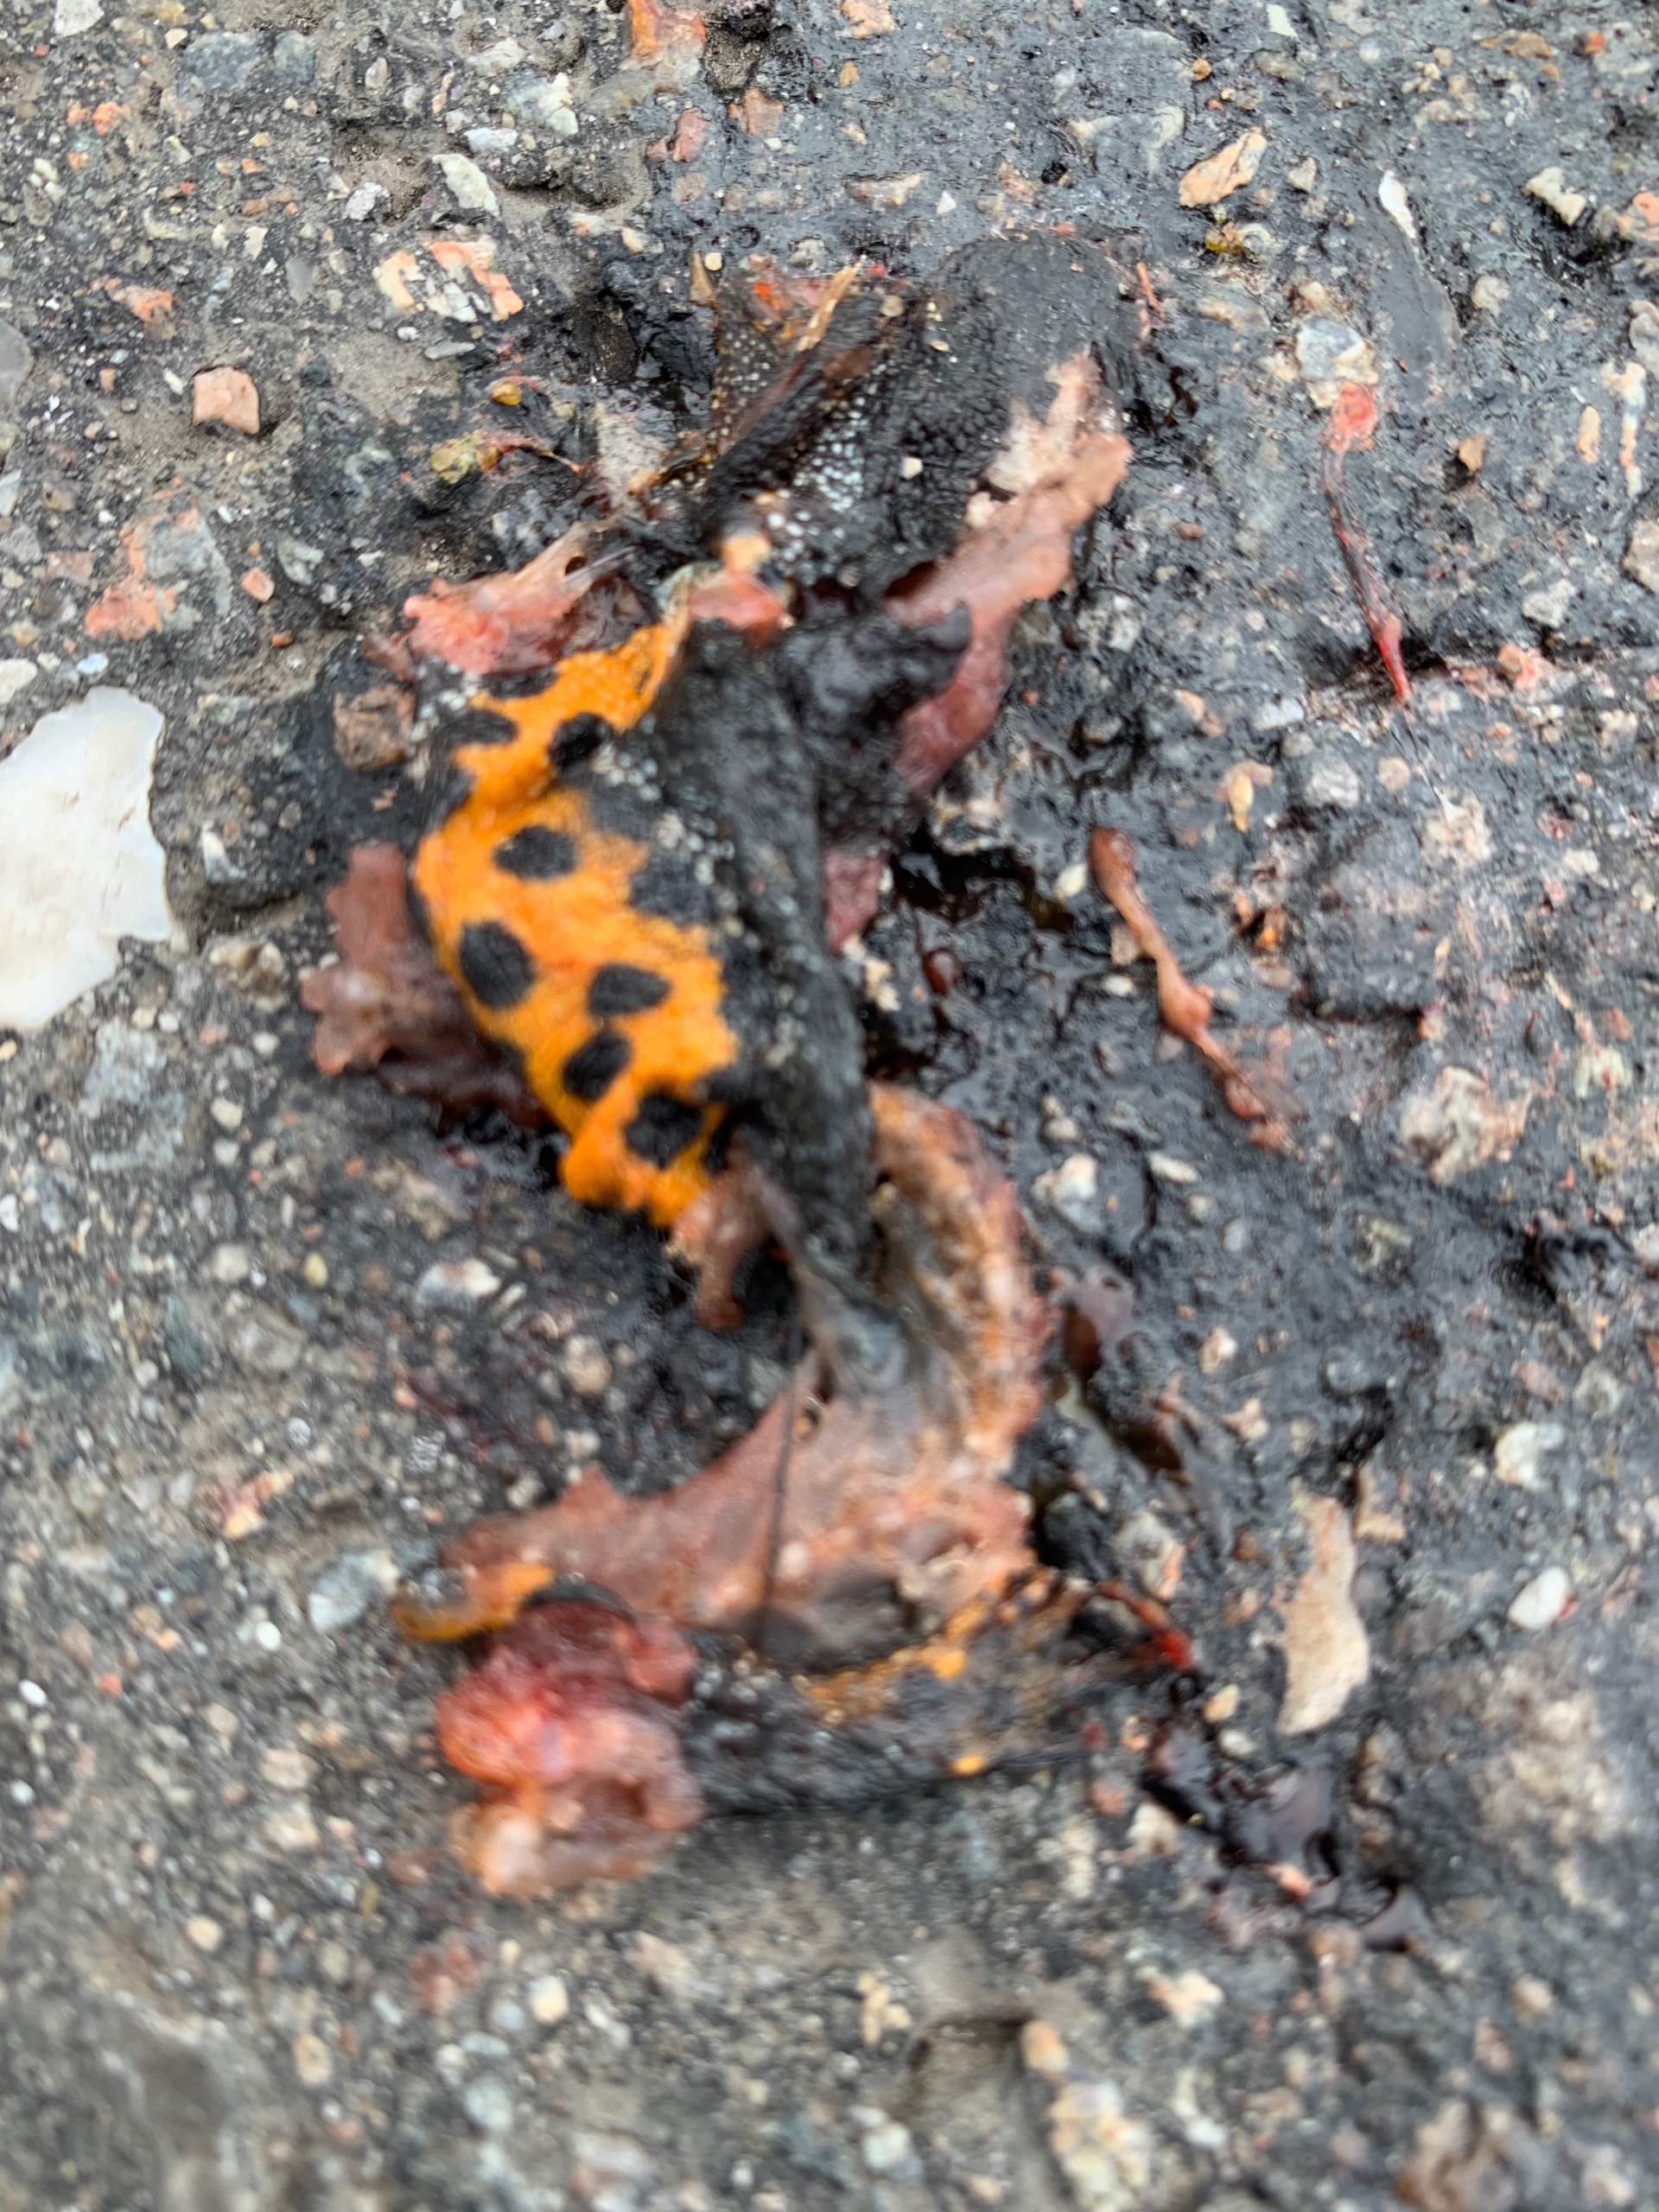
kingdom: Animalia
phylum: Chordata
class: Amphibia
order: Caudata
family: Salamandridae
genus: Triturus
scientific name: Triturus cristatus
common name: Stor vandsalamander
